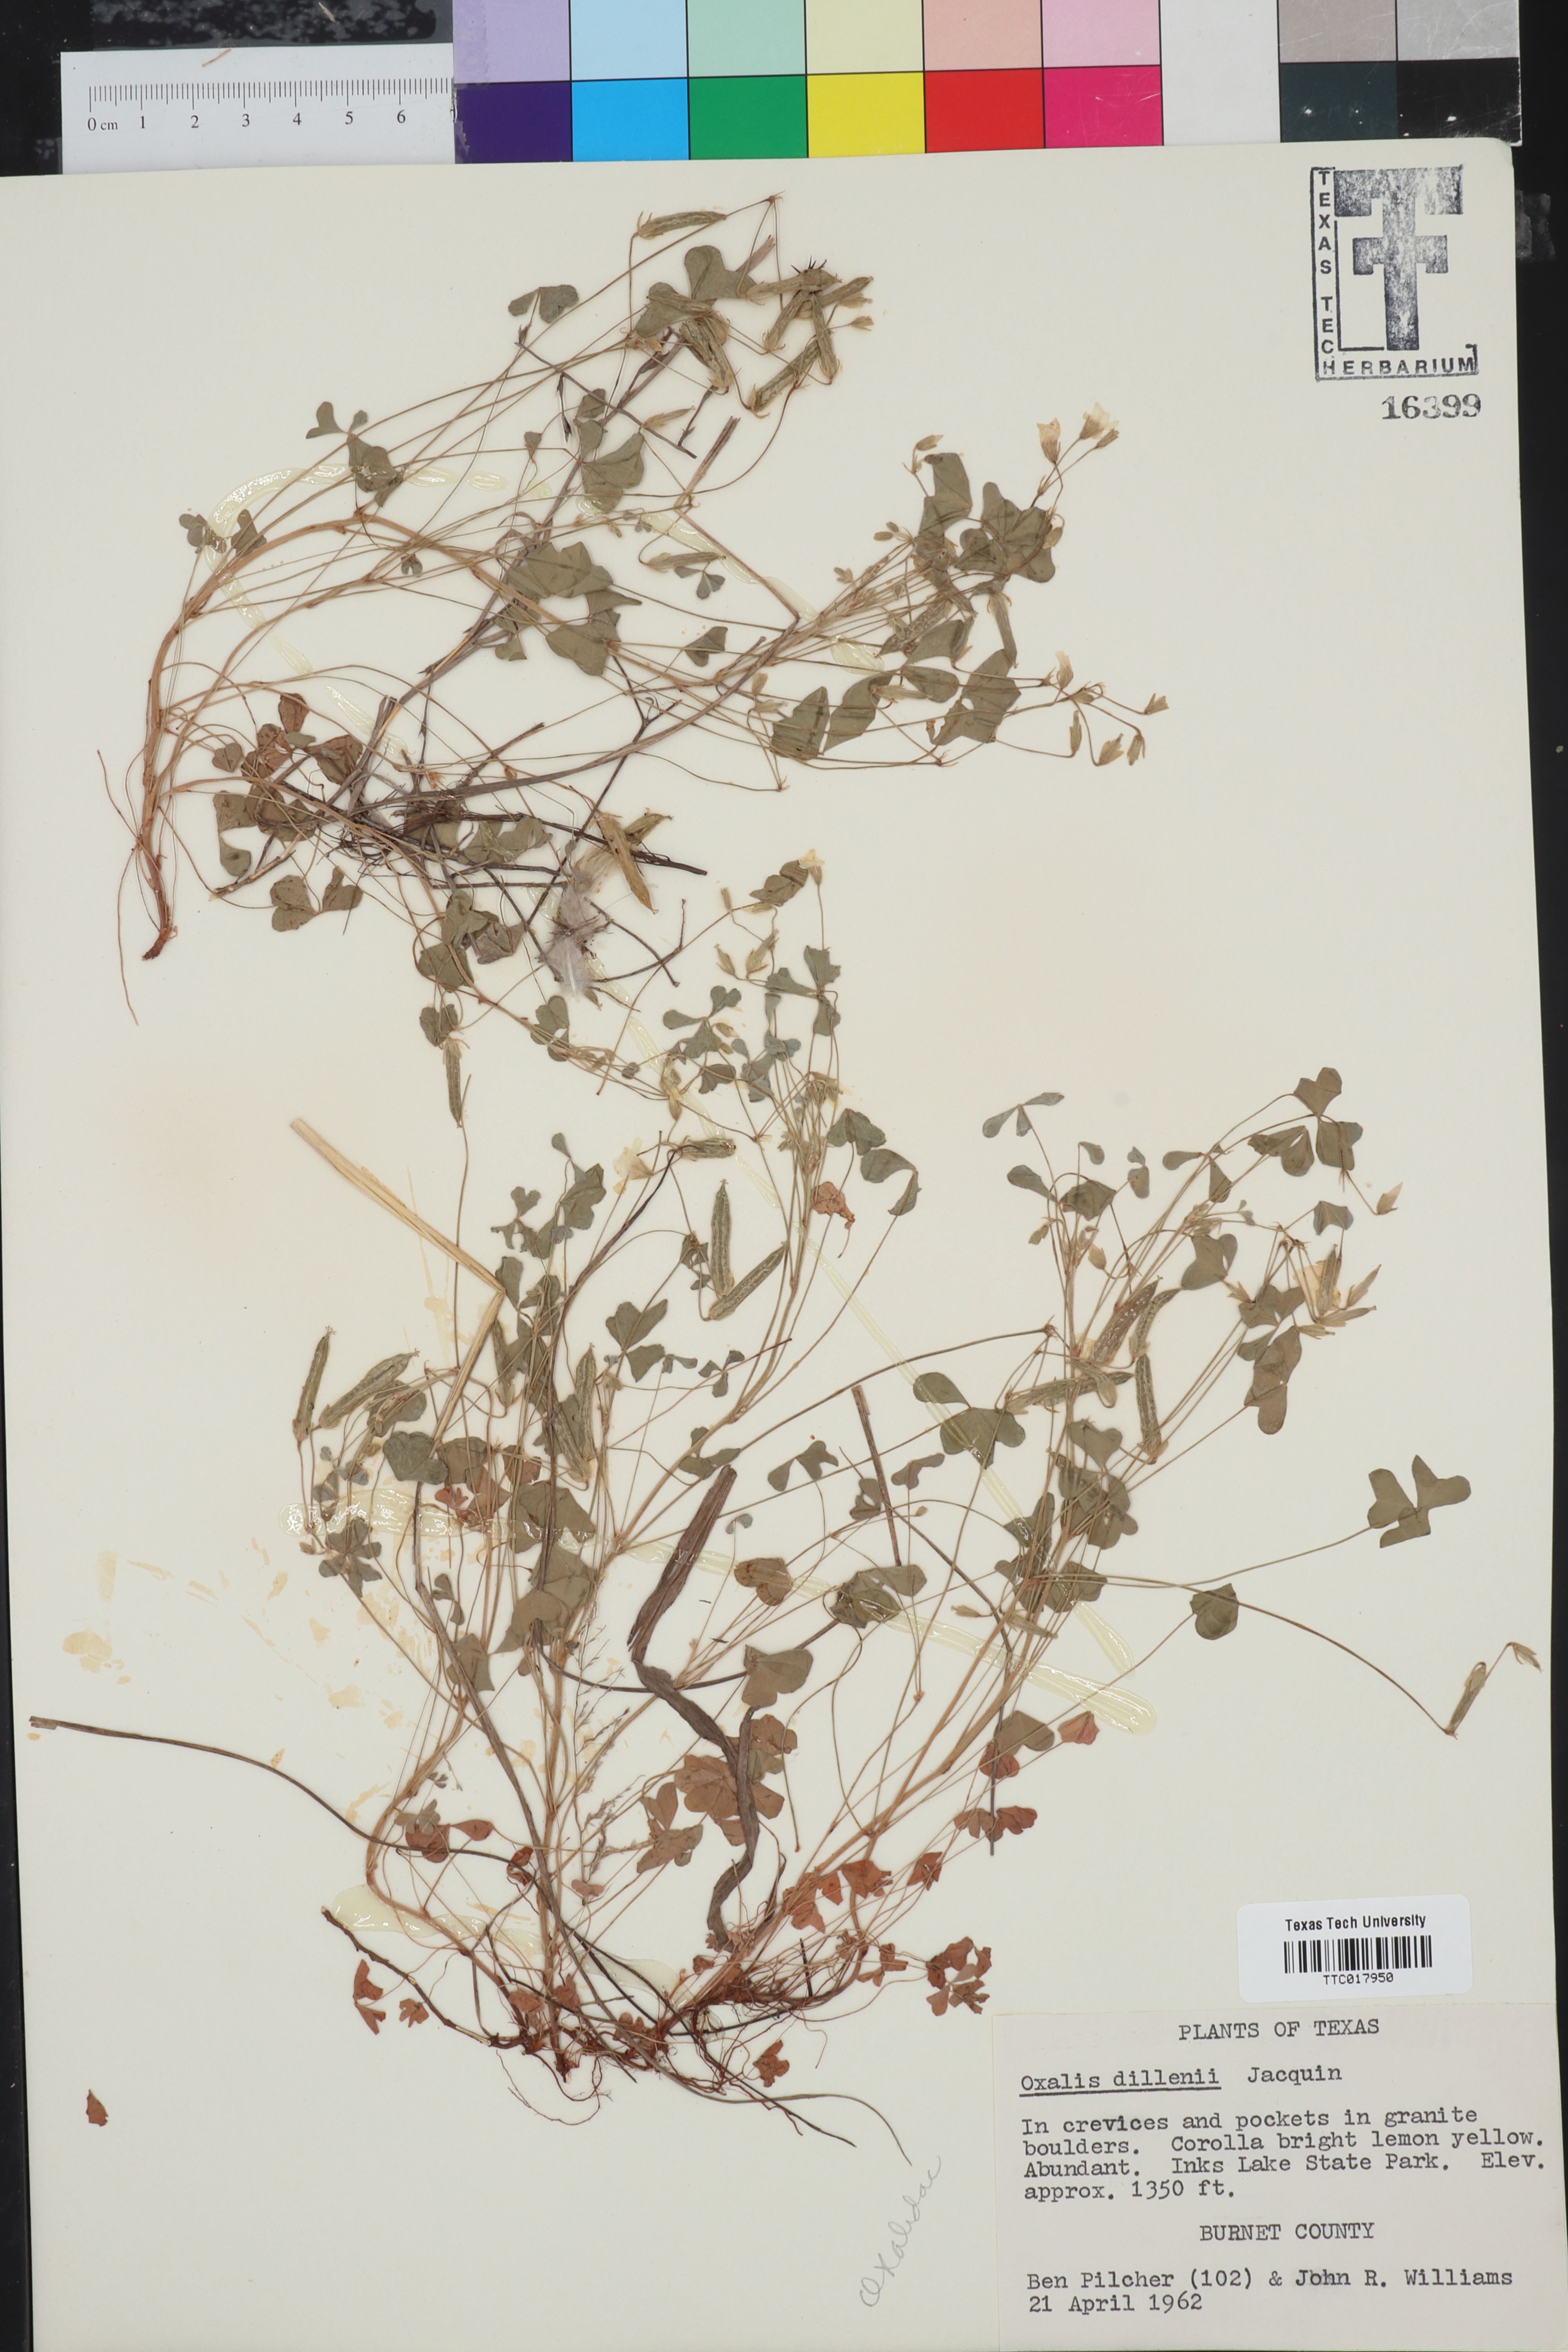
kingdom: Plantae
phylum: Tracheophyta
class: Magnoliopsida
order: Oxalidales
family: Oxalidaceae
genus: Oxalis
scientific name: Oxalis dillenii
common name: Sussex yellow-sorrel
